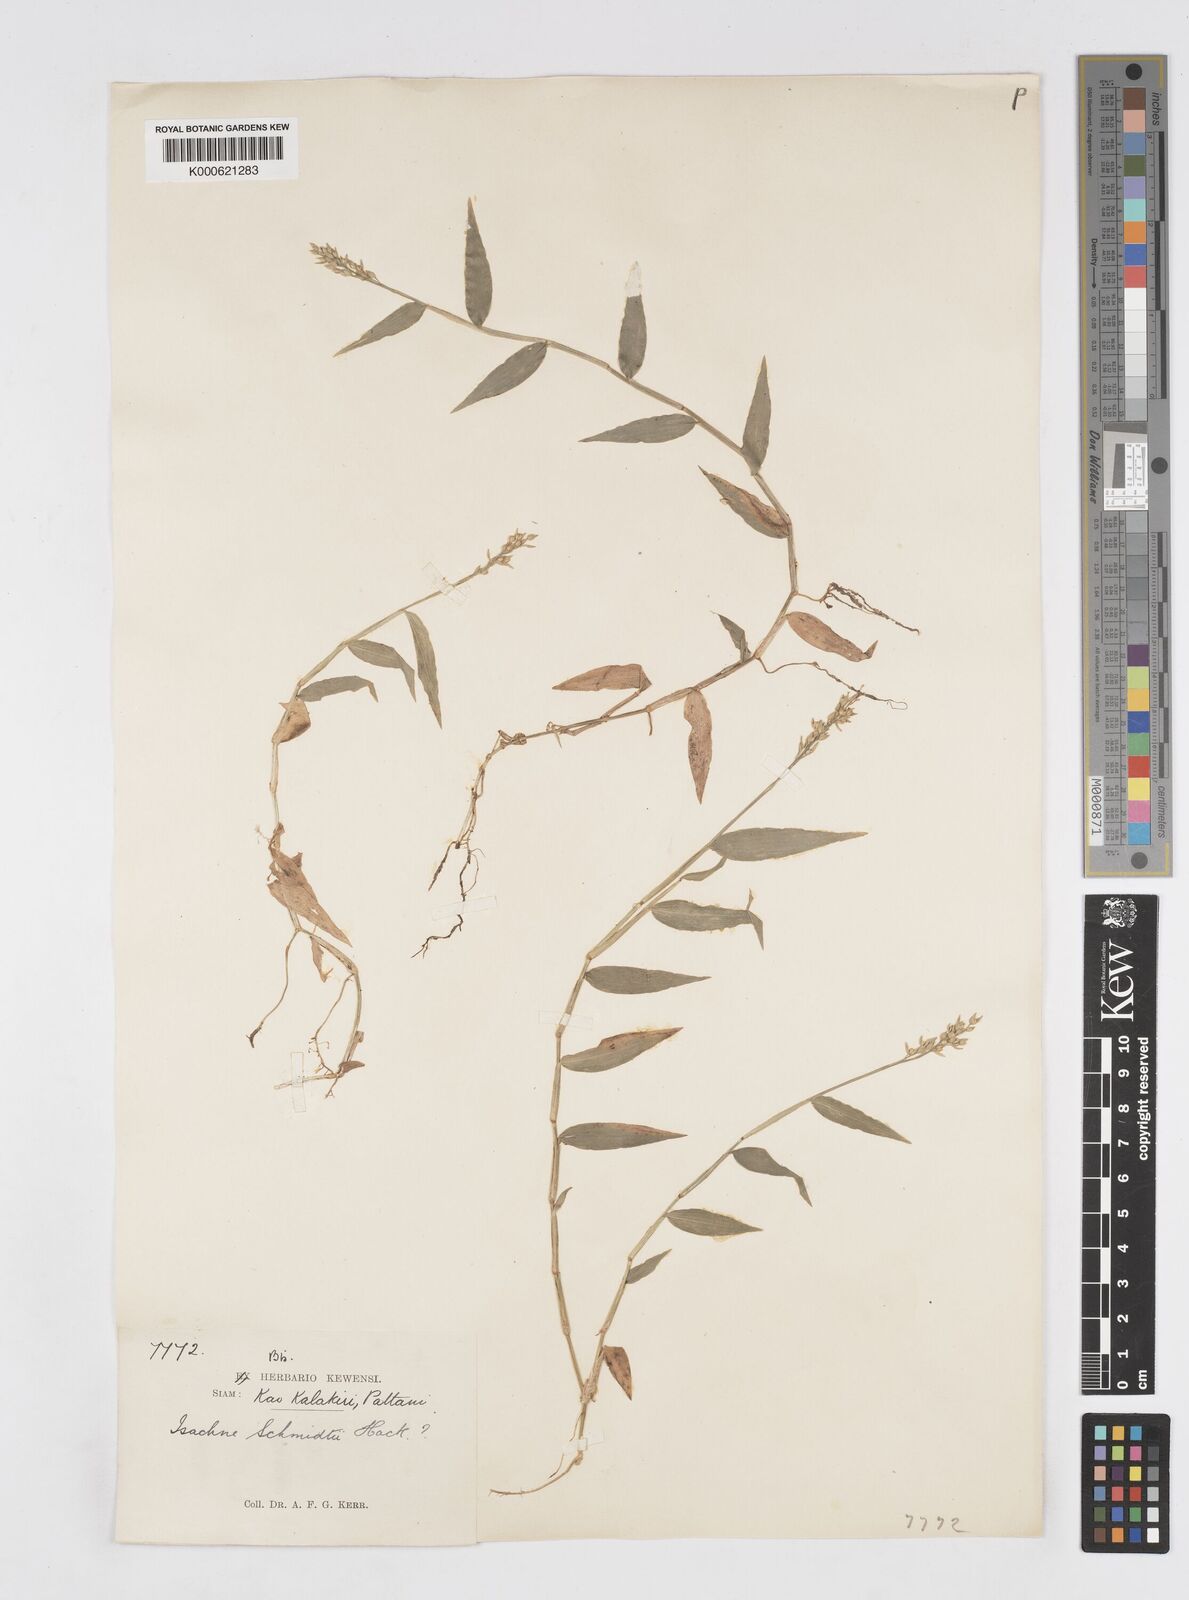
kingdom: Plantae
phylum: Tracheophyta
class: Liliopsida
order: Poales
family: Poaceae
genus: Isachne
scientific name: Isachne schmidtii
